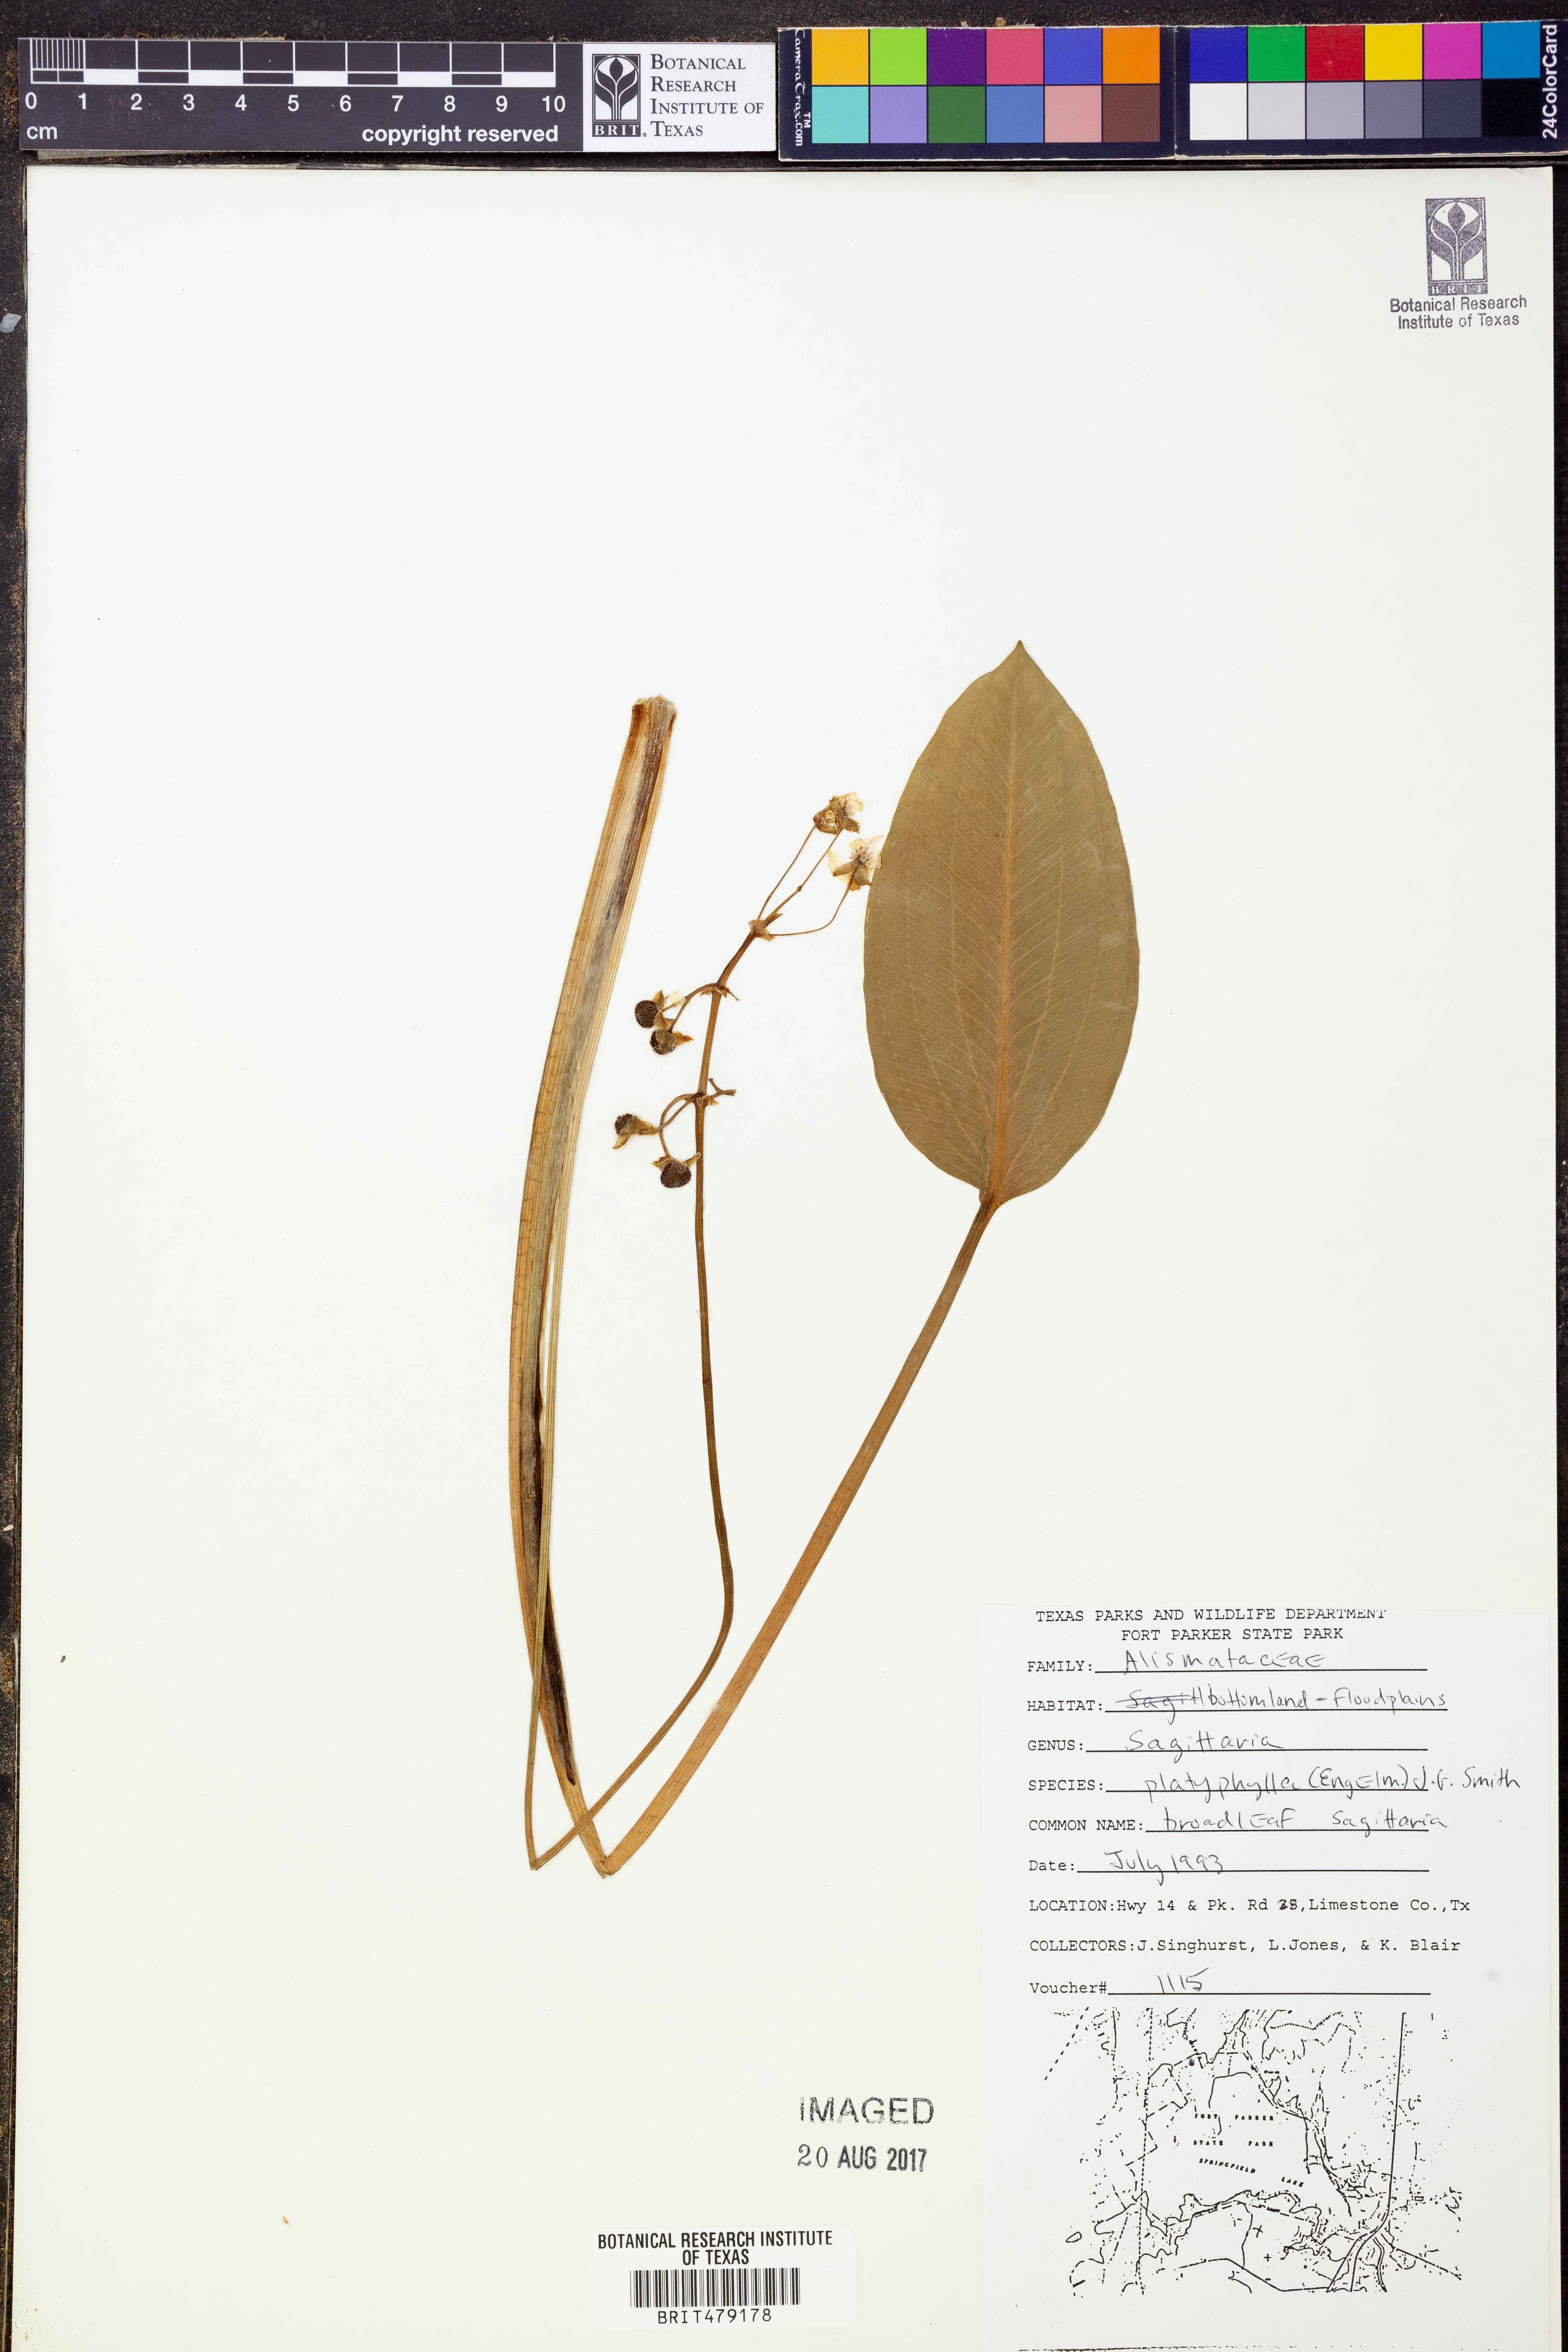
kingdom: Plantae
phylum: Tracheophyta
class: Liliopsida
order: Alismatales
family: Alismataceae
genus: Sagittaria
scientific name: Sagittaria platyphylla
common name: Broad-leaf arrowhead
